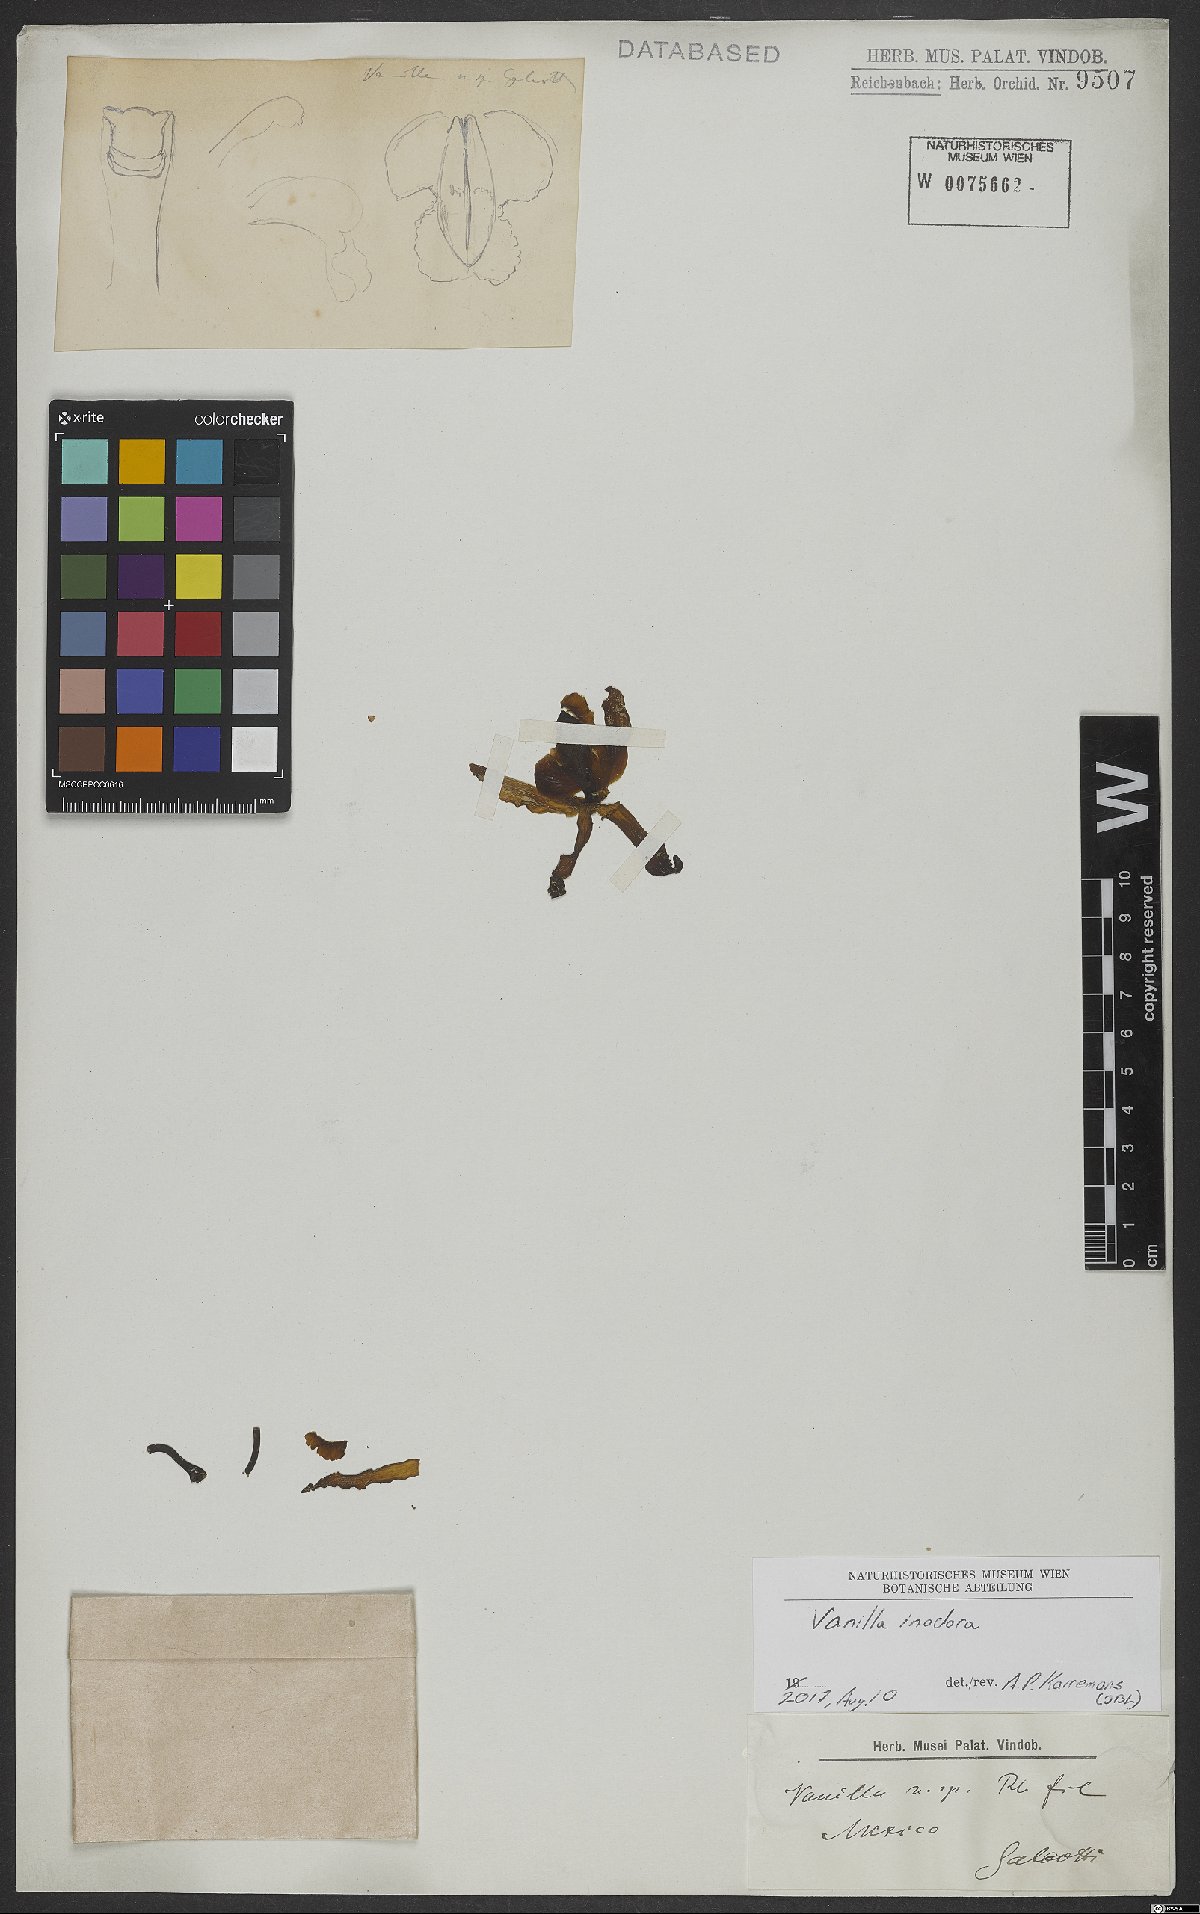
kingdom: Plantae
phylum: Tracheophyta
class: Liliopsida
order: Asparagales
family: Orchidaceae
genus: Vanilla
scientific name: Vanilla
